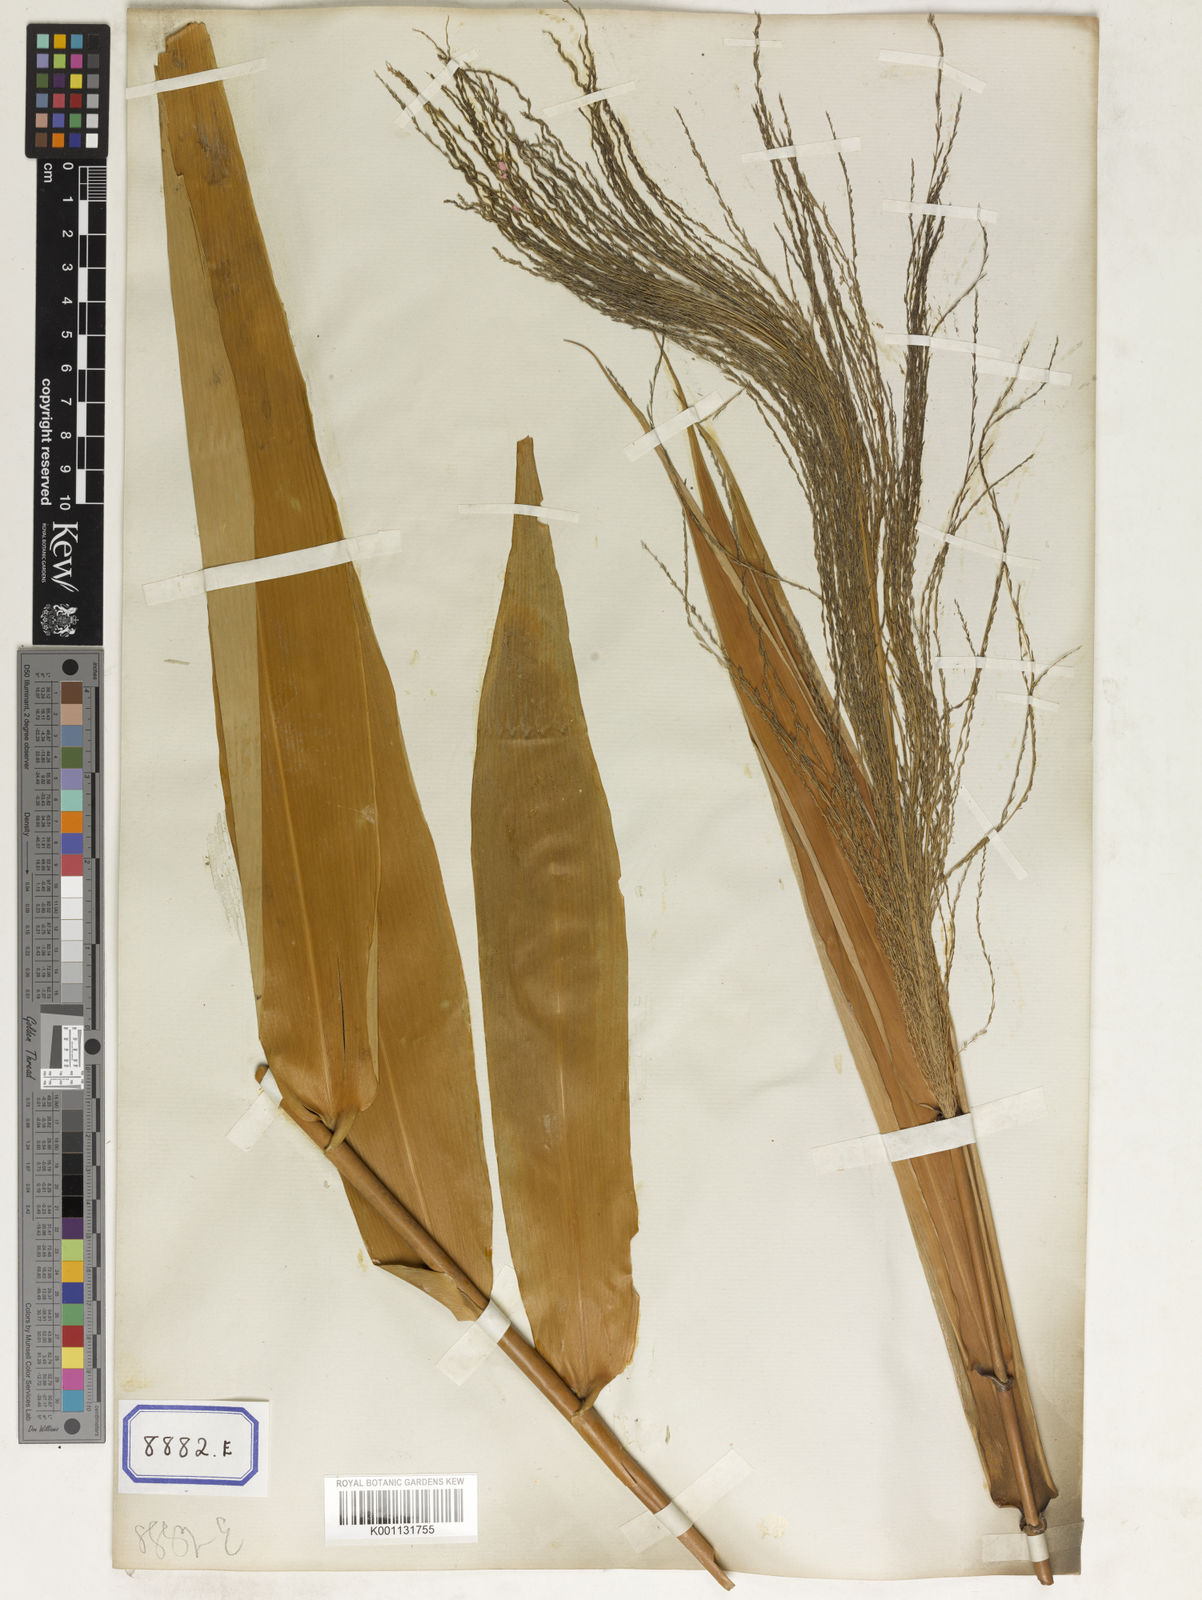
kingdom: Plantae
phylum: Tracheophyta
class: Liliopsida
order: Poales
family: Poaceae
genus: Thysanolaena
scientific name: Thysanolaena latifolia
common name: Tiger grass
